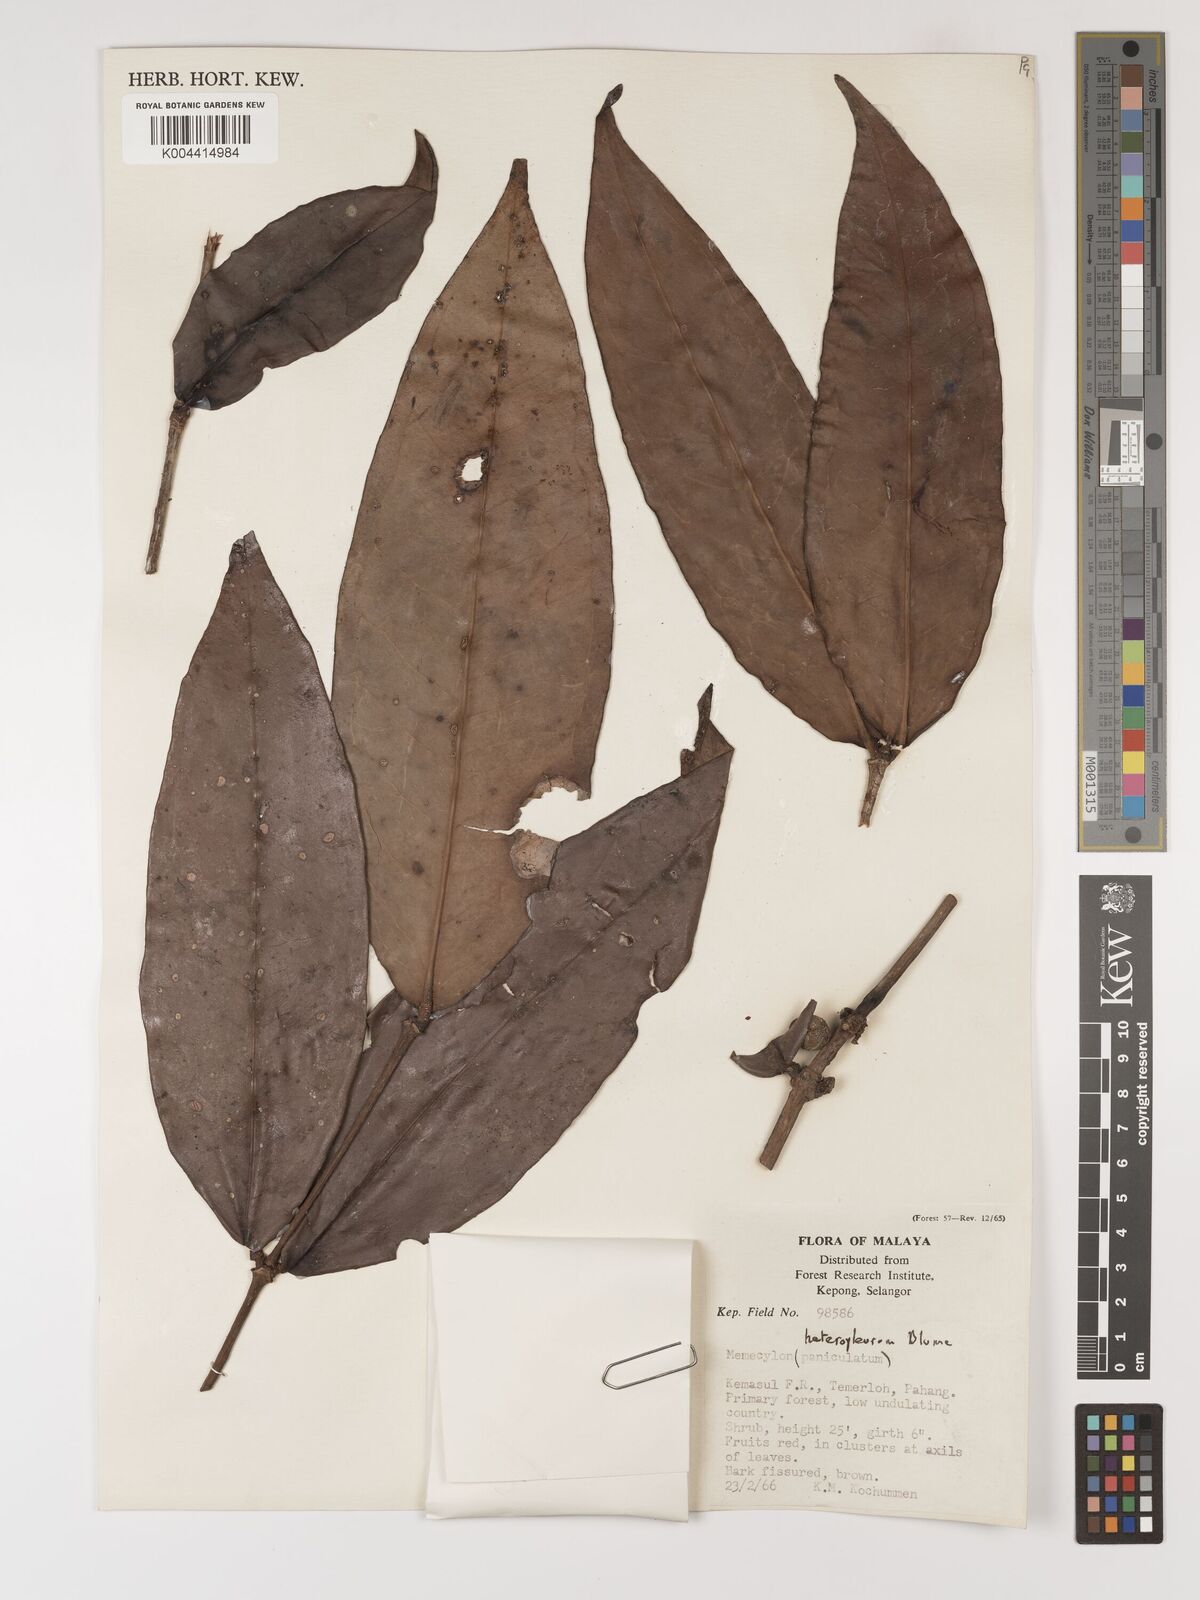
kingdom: Plantae
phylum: Tracheophyta
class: Magnoliopsida
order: Myrtales
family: Melastomataceae
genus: Memecylon
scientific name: Memecylon excelsum
